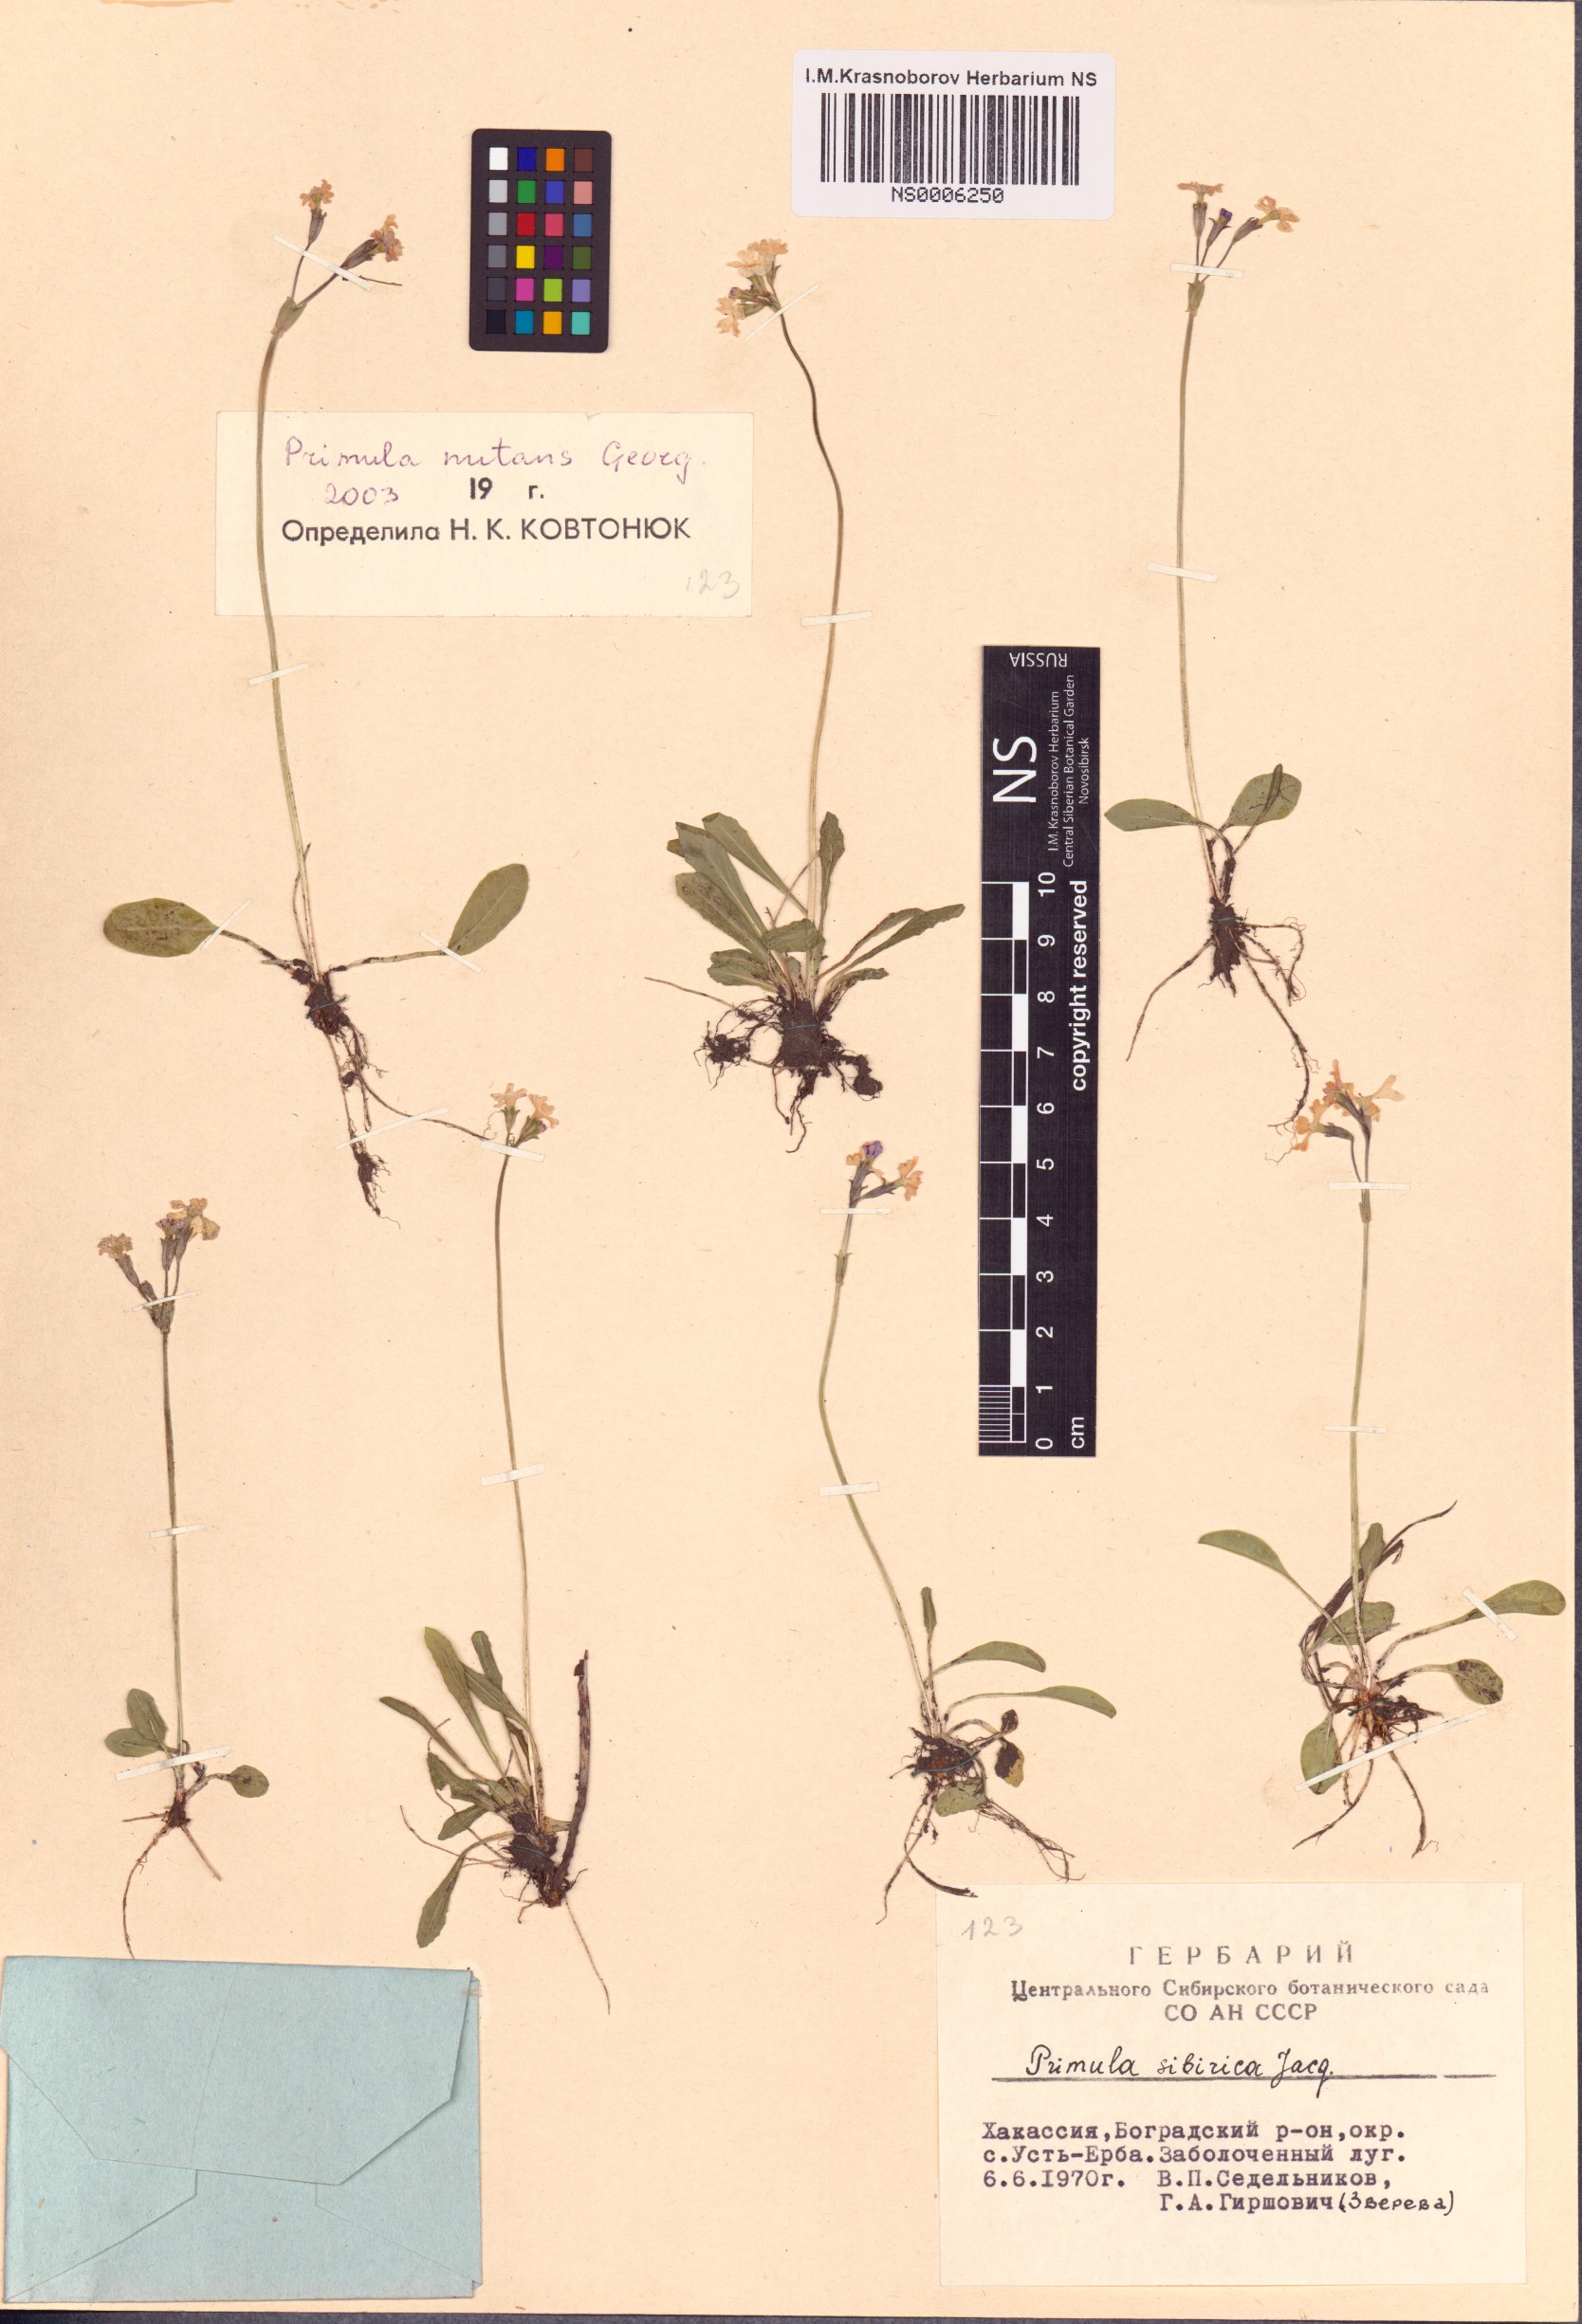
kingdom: Plantae
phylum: Tracheophyta
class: Magnoliopsida
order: Ericales
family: Primulaceae
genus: Primula
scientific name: Primula nutans
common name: Siberian primrose
